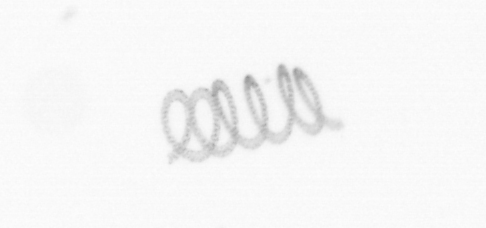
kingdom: Chromista
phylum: Ochrophyta
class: Bacillariophyceae
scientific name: Bacillariophyceae
